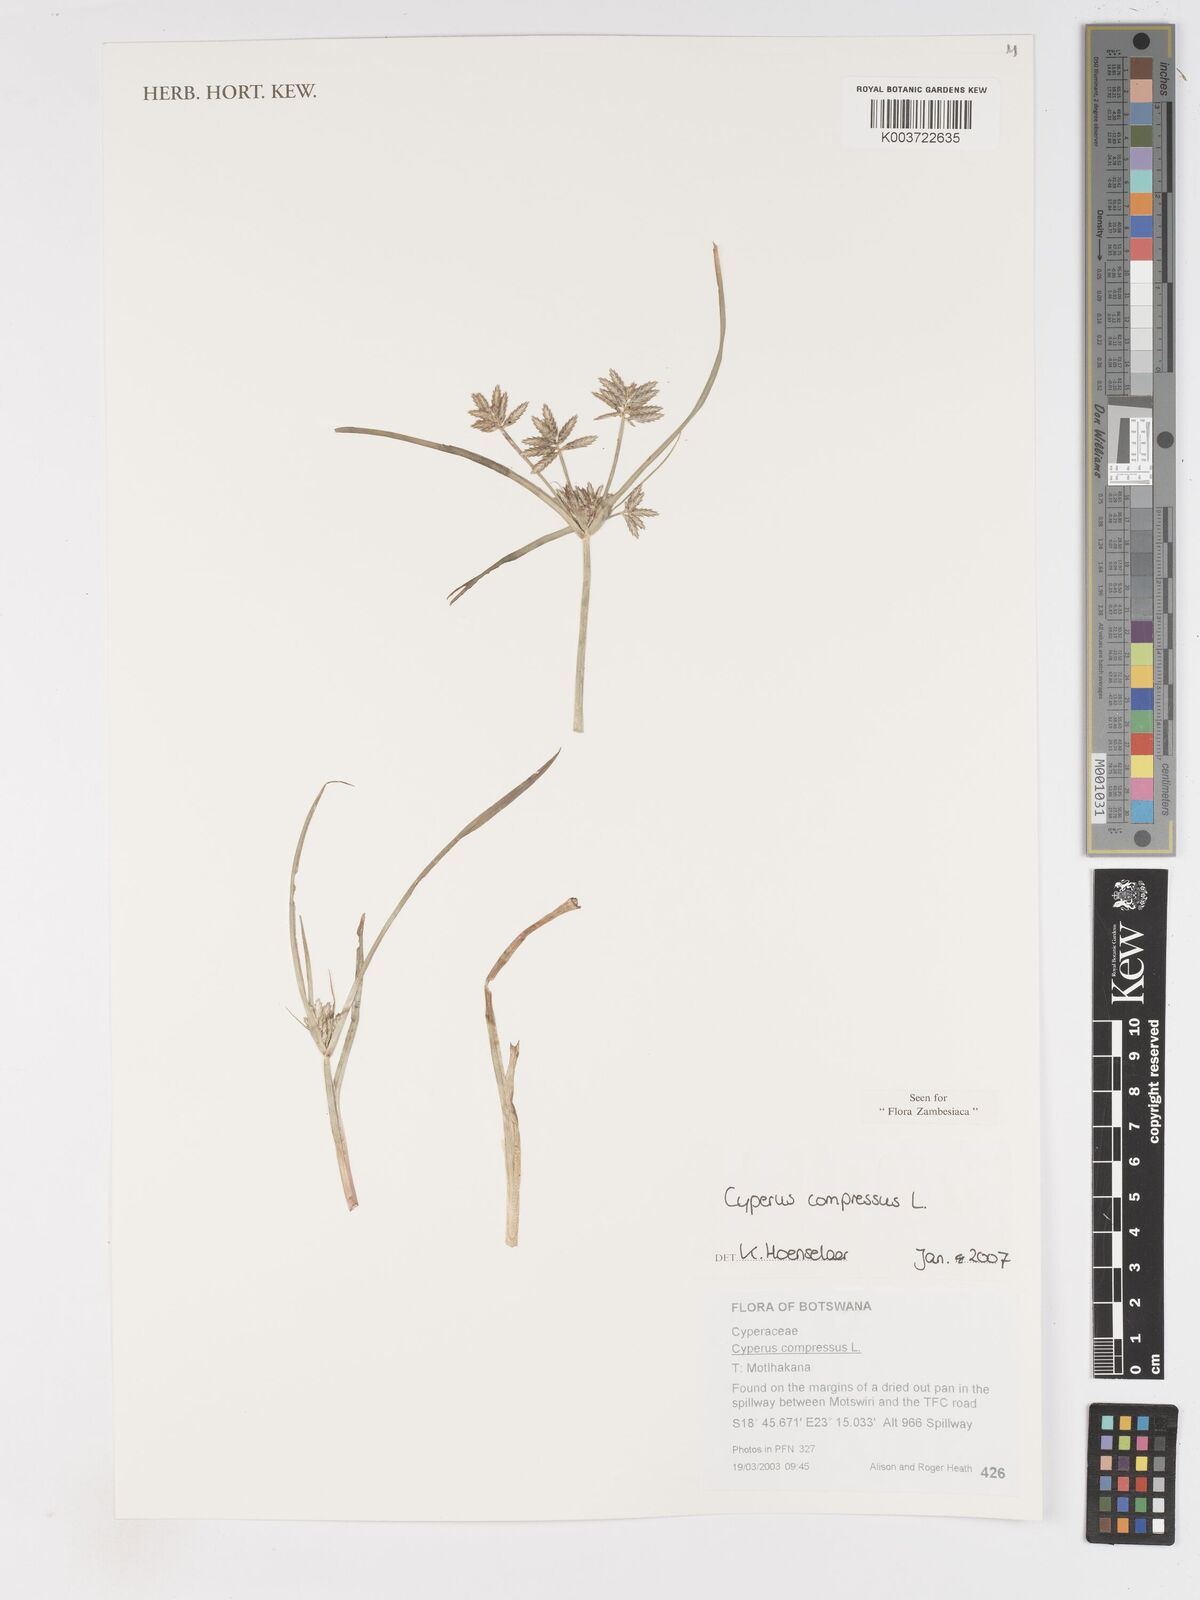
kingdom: Plantae
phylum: Tracheophyta
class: Liliopsida
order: Poales
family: Cyperaceae
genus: Cyperus
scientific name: Cyperus compressus
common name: Poorland flatsedge
